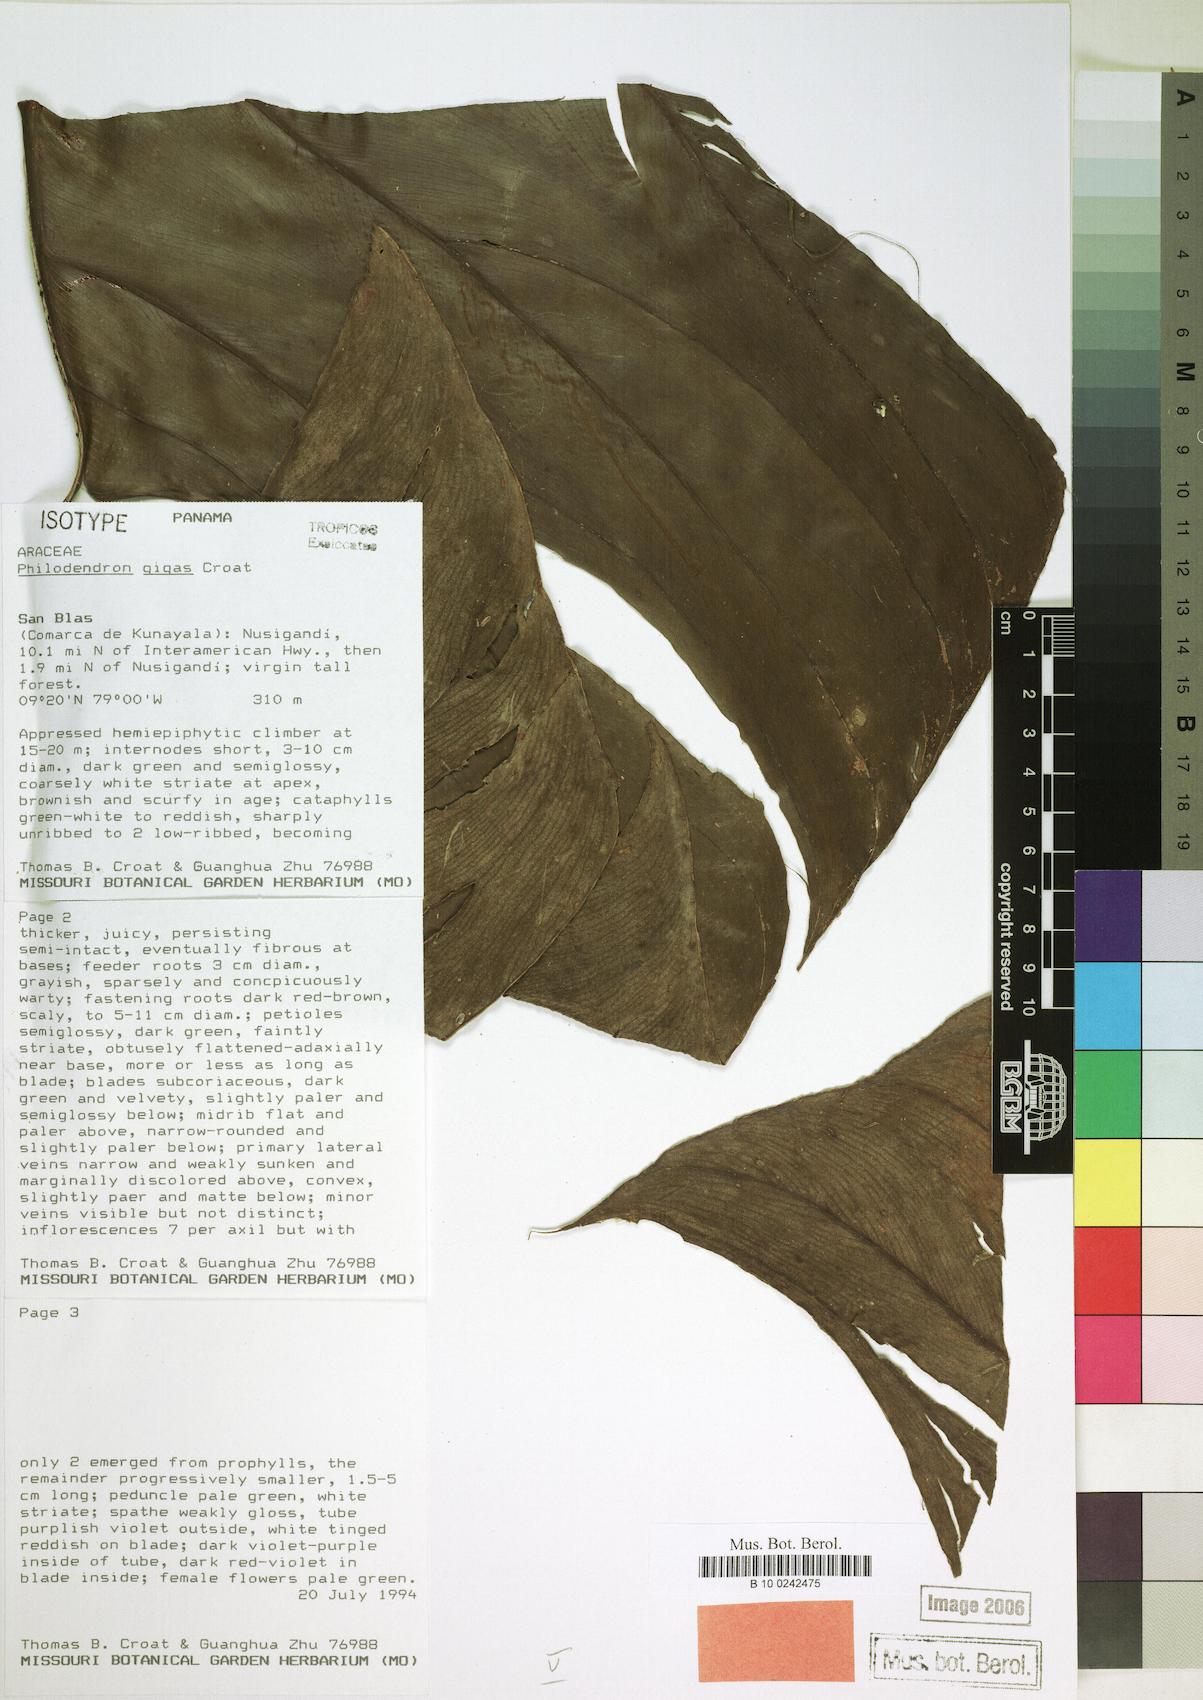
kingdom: Plantae
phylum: Tracheophyta
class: Liliopsida
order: Alismatales
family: Araceae
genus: Philodendron
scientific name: Philodendron gigas
